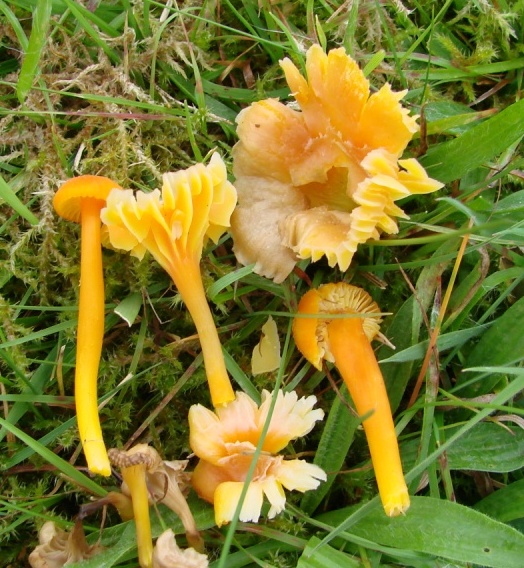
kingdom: Fungi
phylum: Basidiomycota
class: Agaricomycetes
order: Agaricales
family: Hygrophoraceae
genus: Hygrocybe
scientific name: Hygrocybe miniata
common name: mønje-vokshat
